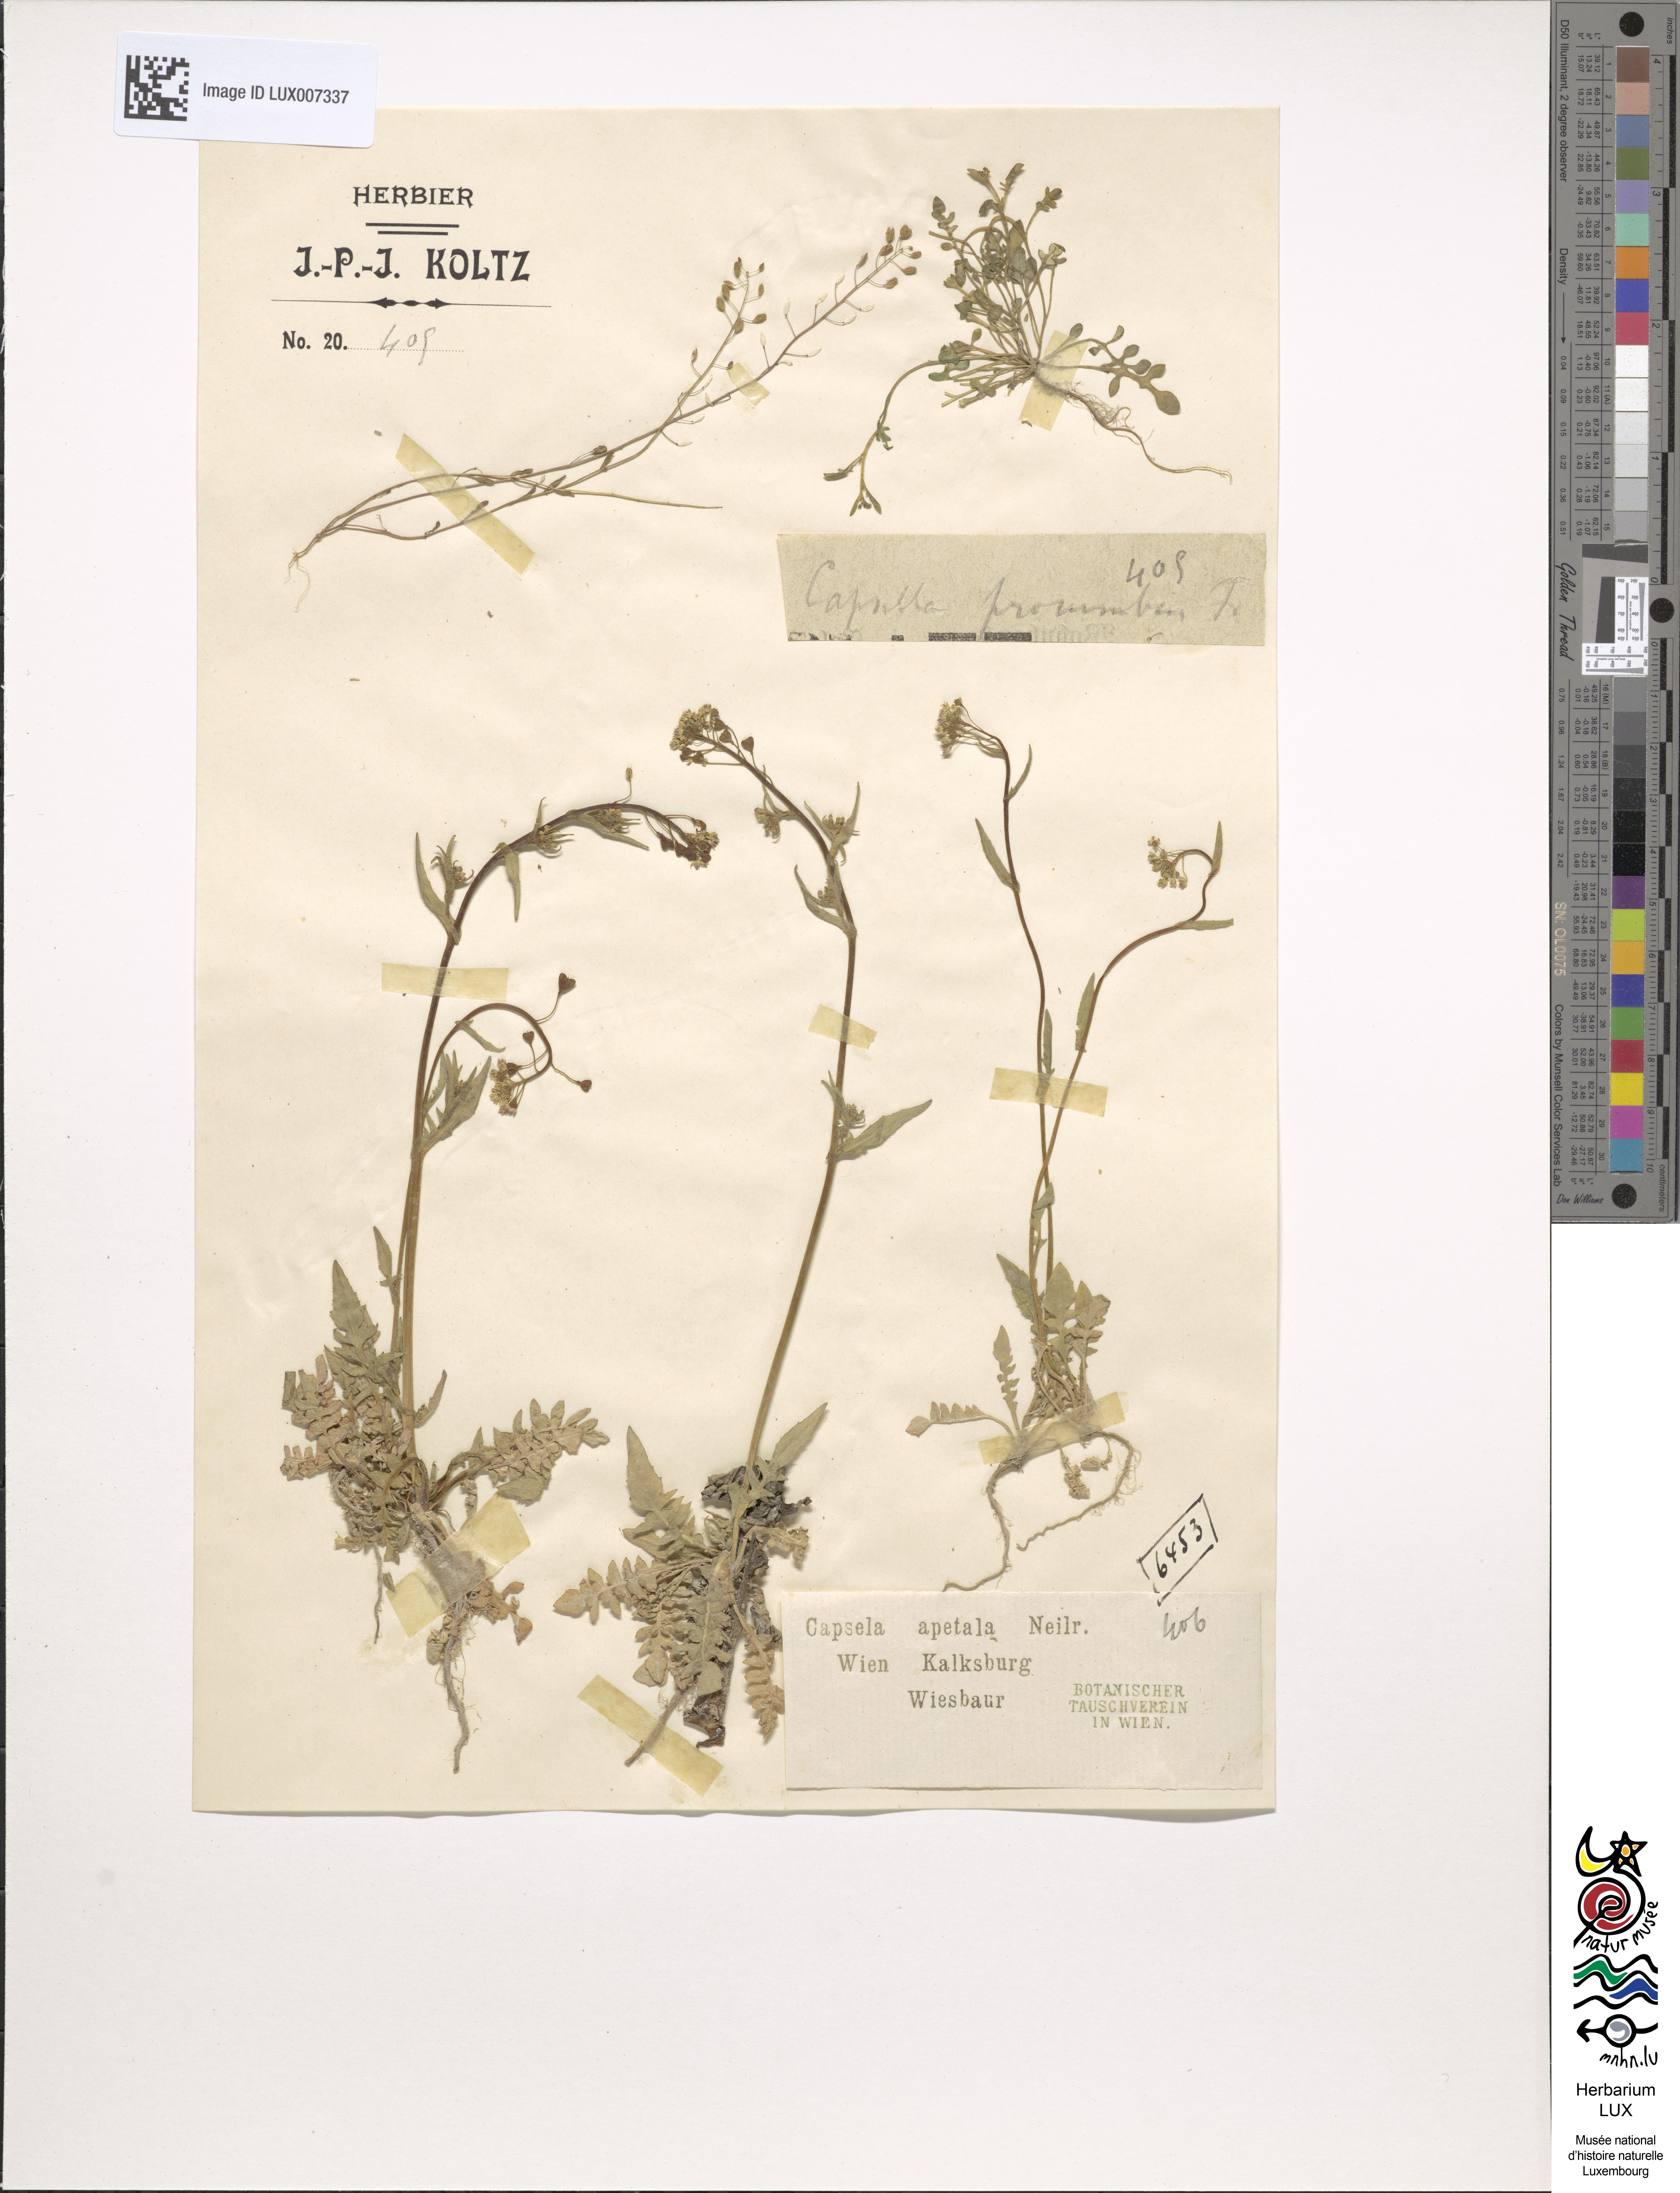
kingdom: Plantae
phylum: Tracheophyta
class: Magnoliopsida
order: Brassicales
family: Brassicaceae
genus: Capsella
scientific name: Capsella bursa-pastoris
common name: Shepherd's purse
